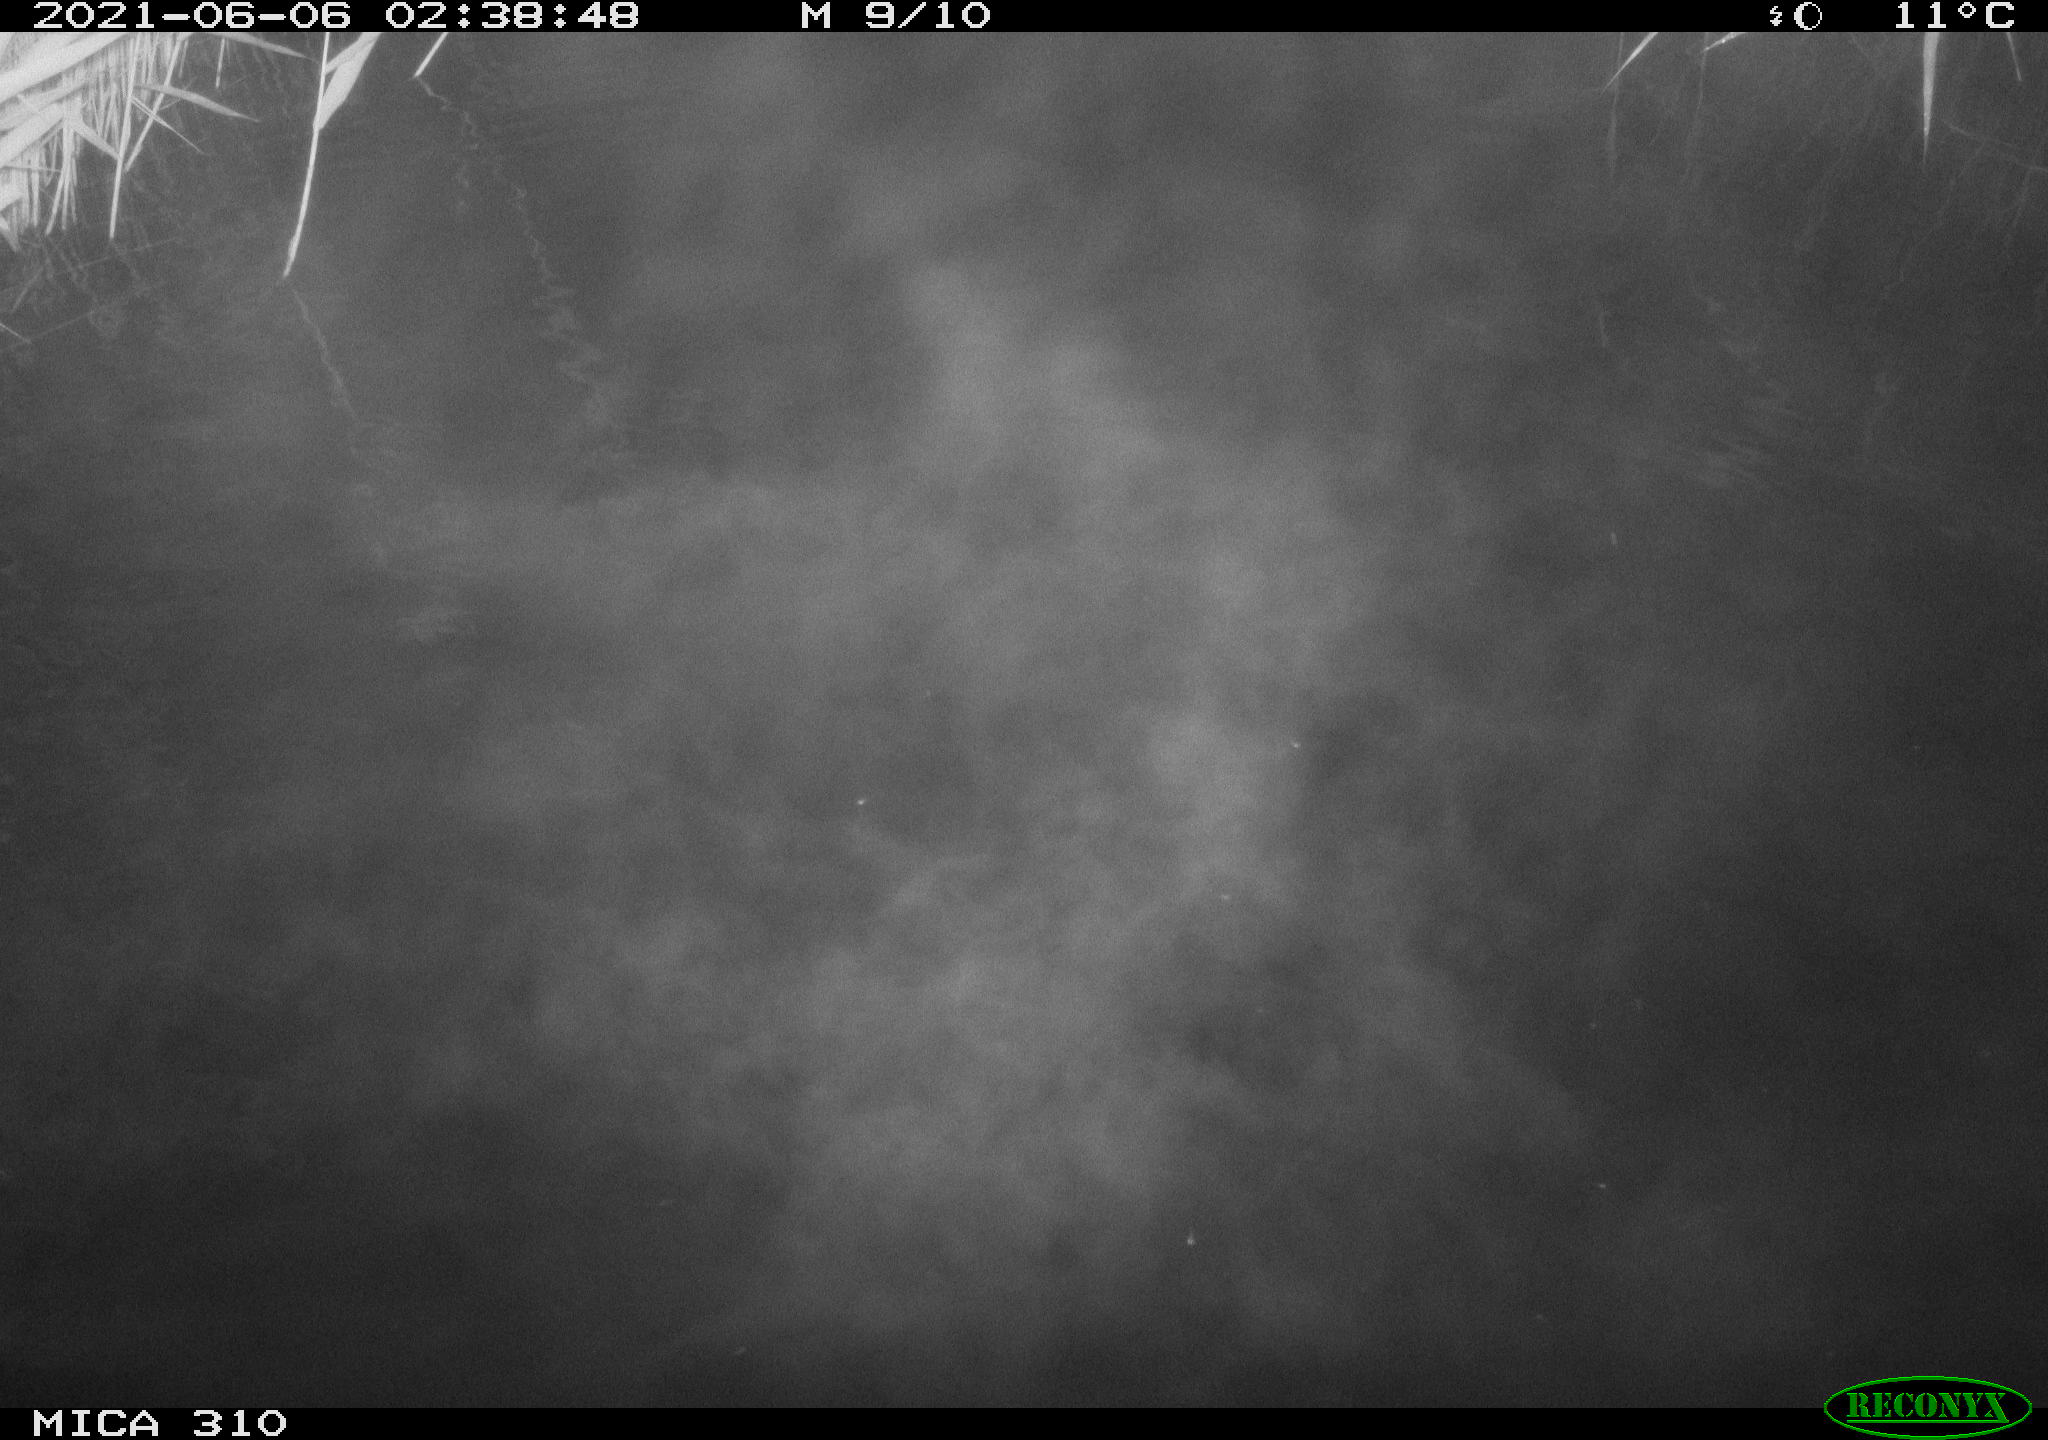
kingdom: Animalia
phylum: Chordata
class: Mammalia
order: Rodentia
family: Cricetidae
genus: Ondatra
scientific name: Ondatra zibethicus
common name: Muskrat
